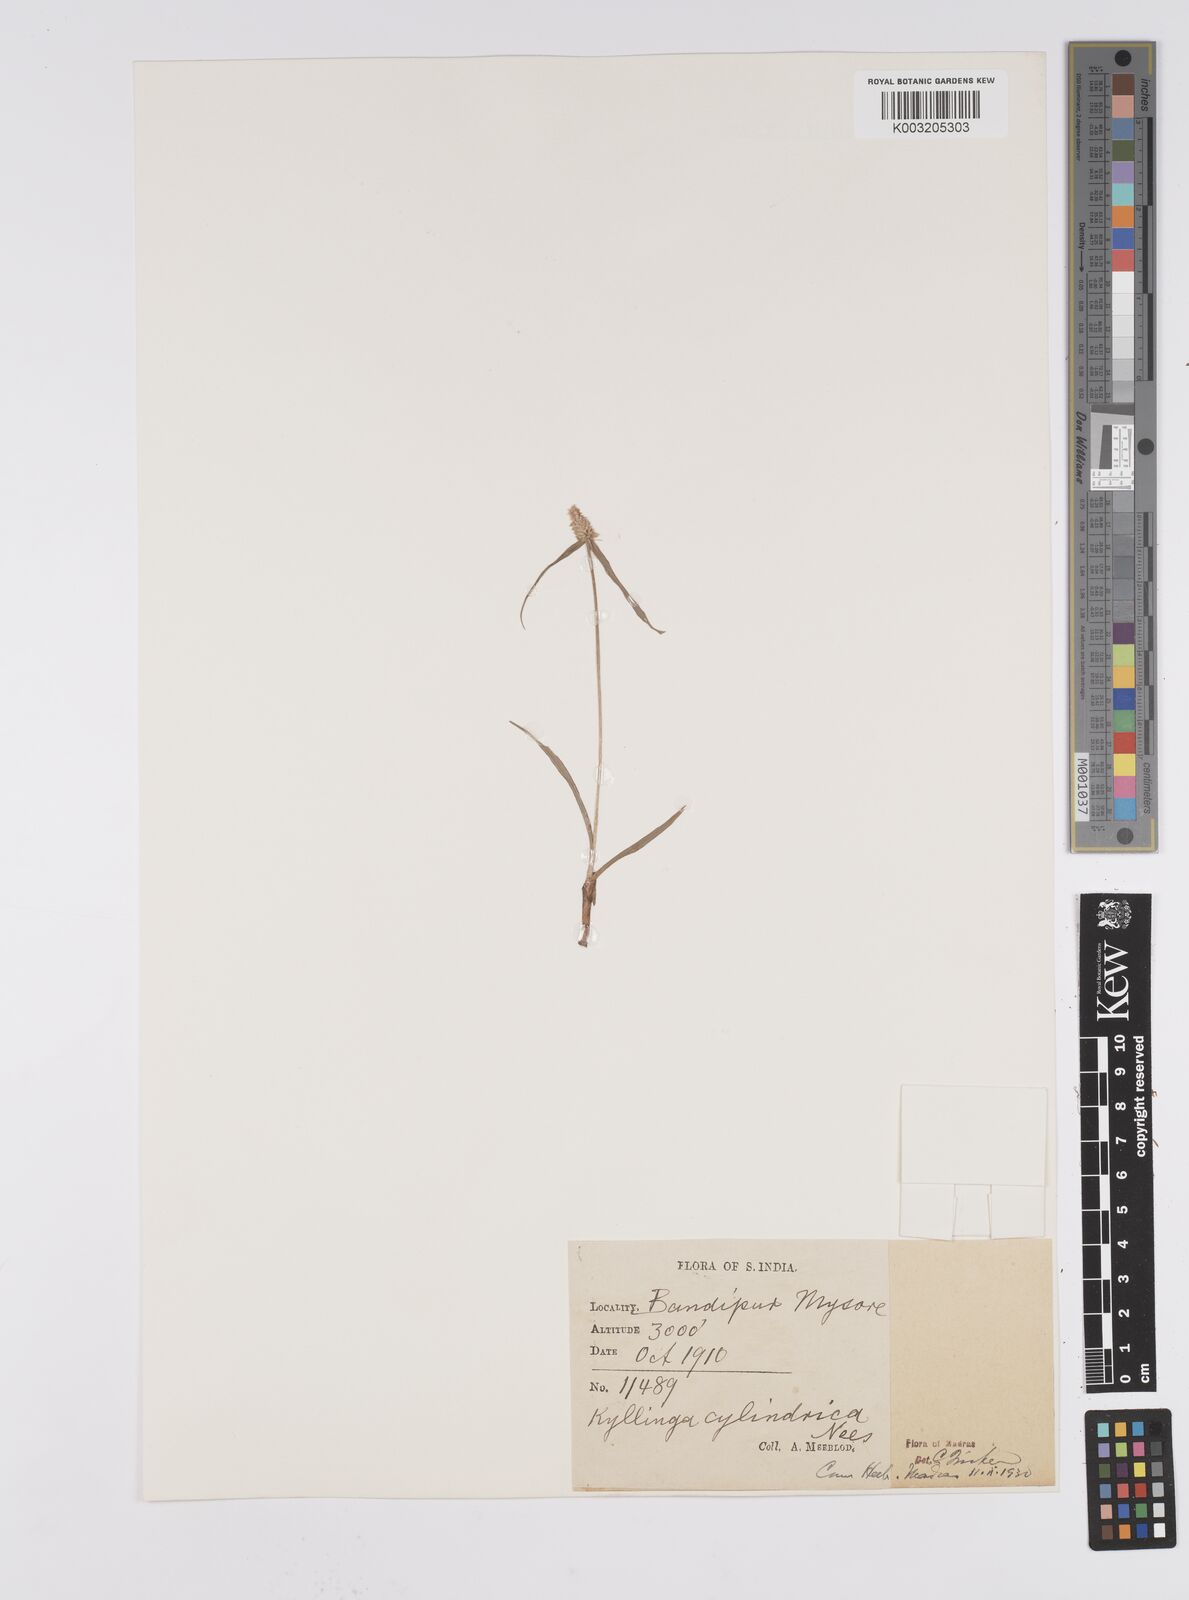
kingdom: Plantae
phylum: Tracheophyta
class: Liliopsida
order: Poales
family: Cyperaceae
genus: Cyperus
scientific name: Cyperus
